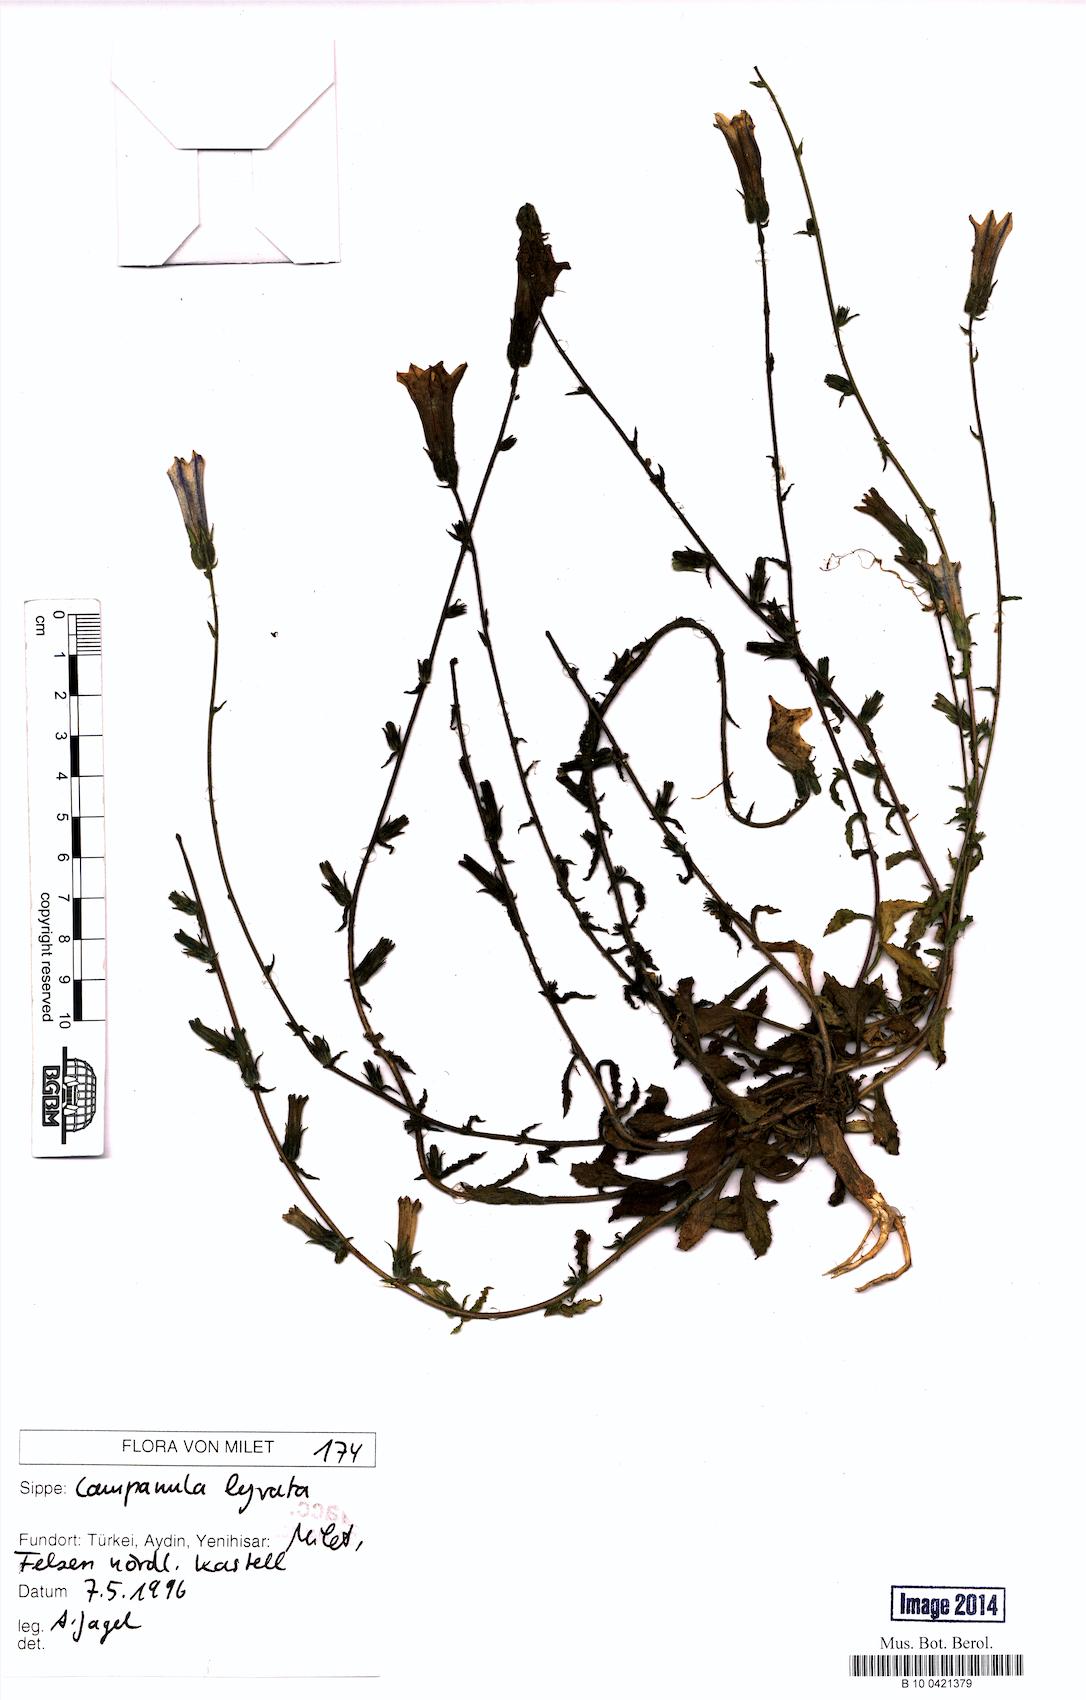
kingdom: Plantae
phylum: Tracheophyta
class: Magnoliopsida
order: Asterales
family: Campanulaceae
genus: Campanula
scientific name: Campanula lyrata
